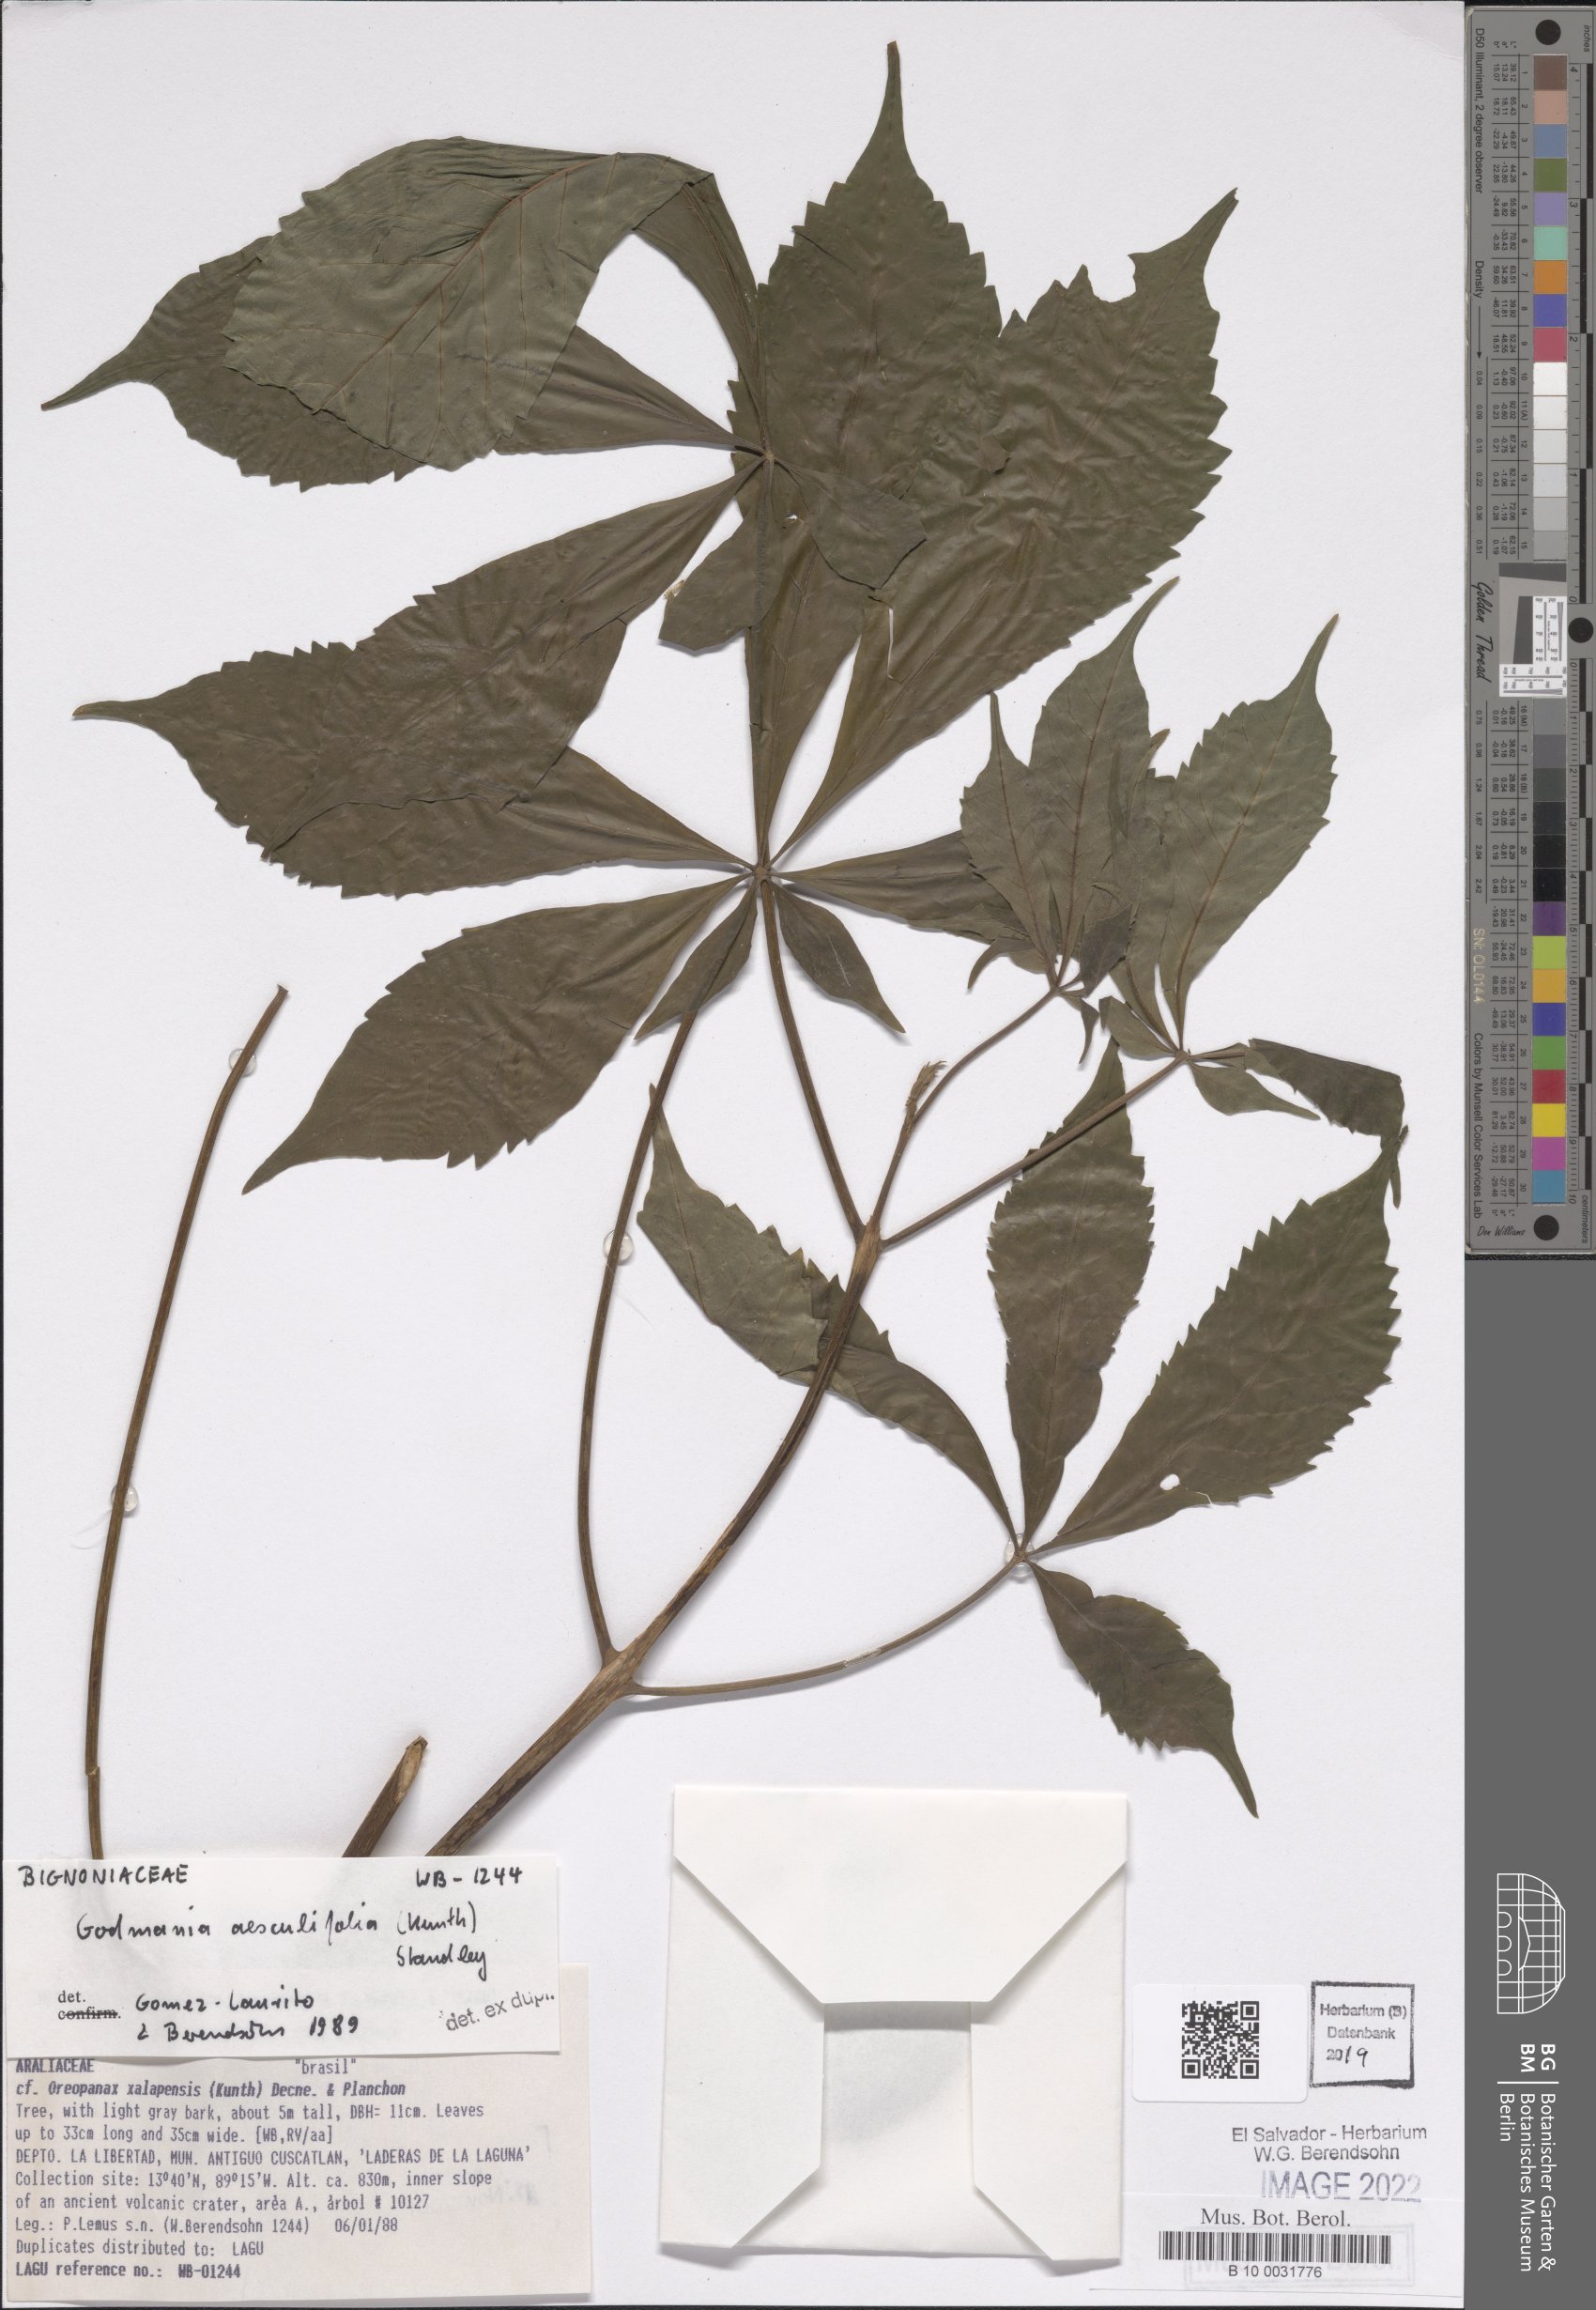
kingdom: Plantae
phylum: Tracheophyta
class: Magnoliopsida
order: Lamiales
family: Bignoniaceae
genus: Godmania
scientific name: Godmania aesculifolia
